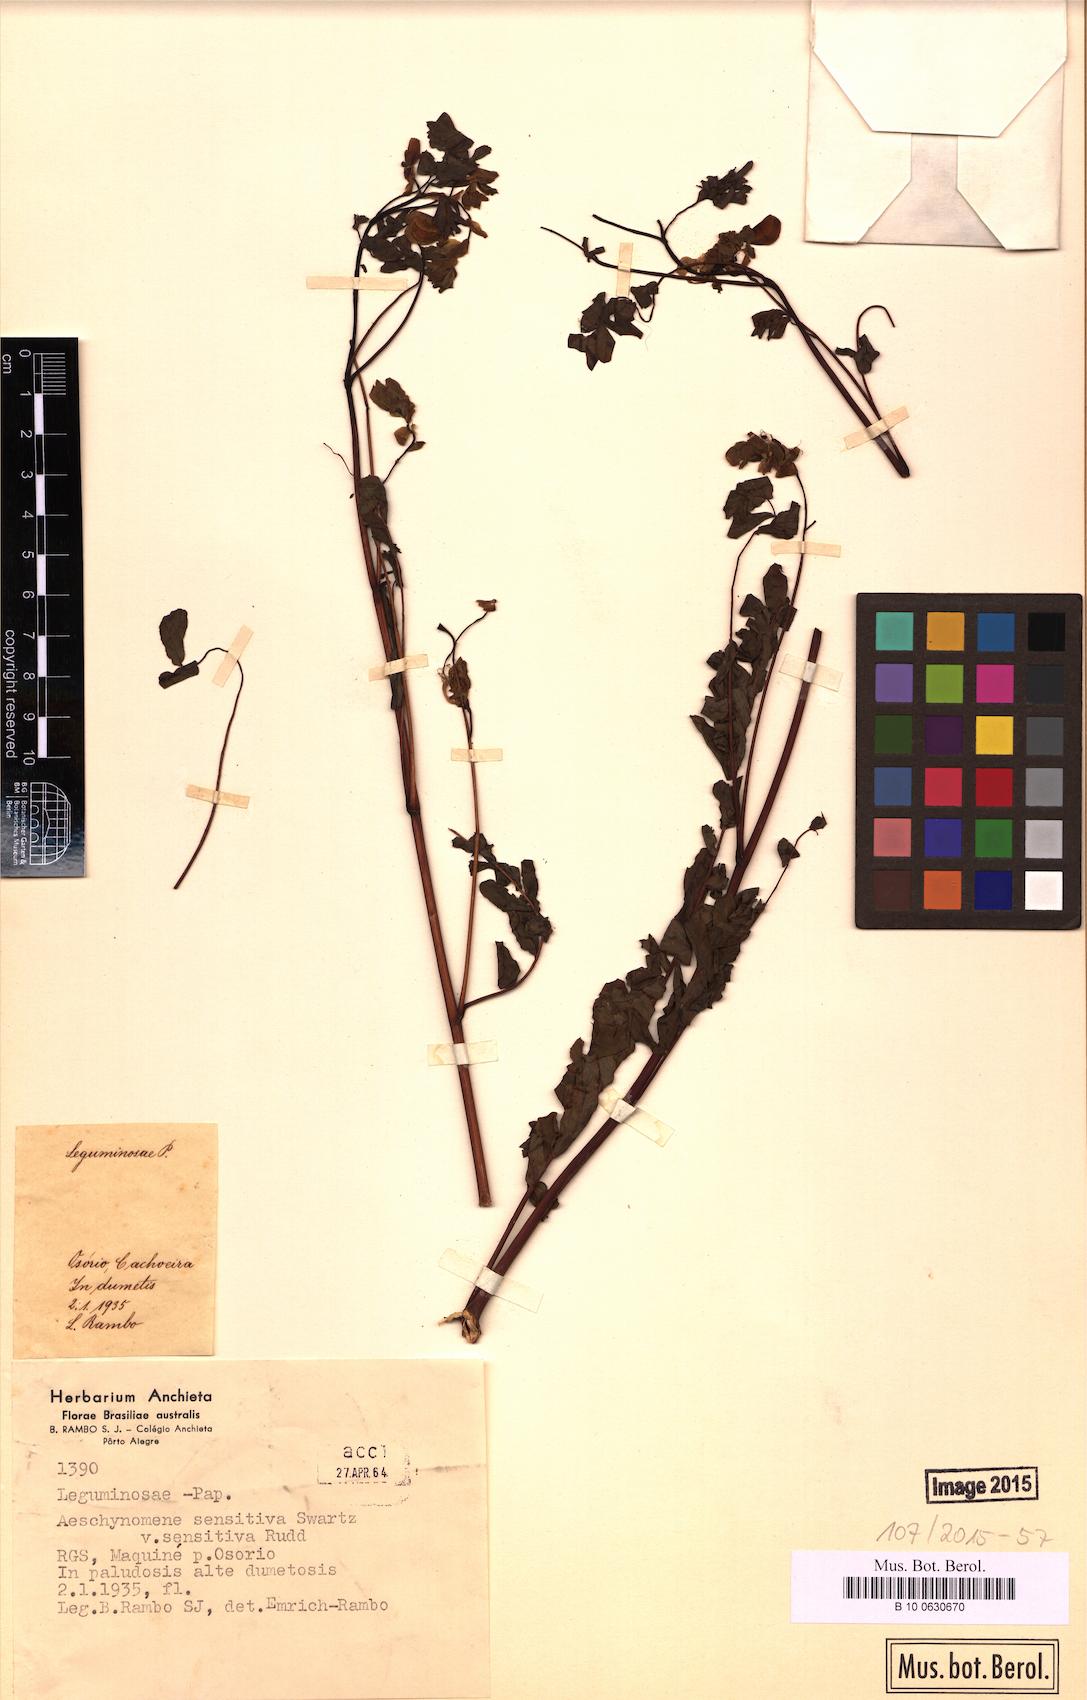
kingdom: Plantae
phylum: Tracheophyta
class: Magnoliopsida
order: Fabales
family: Fabaceae
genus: Aeschynomene
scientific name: Aeschynomene sensitiva
